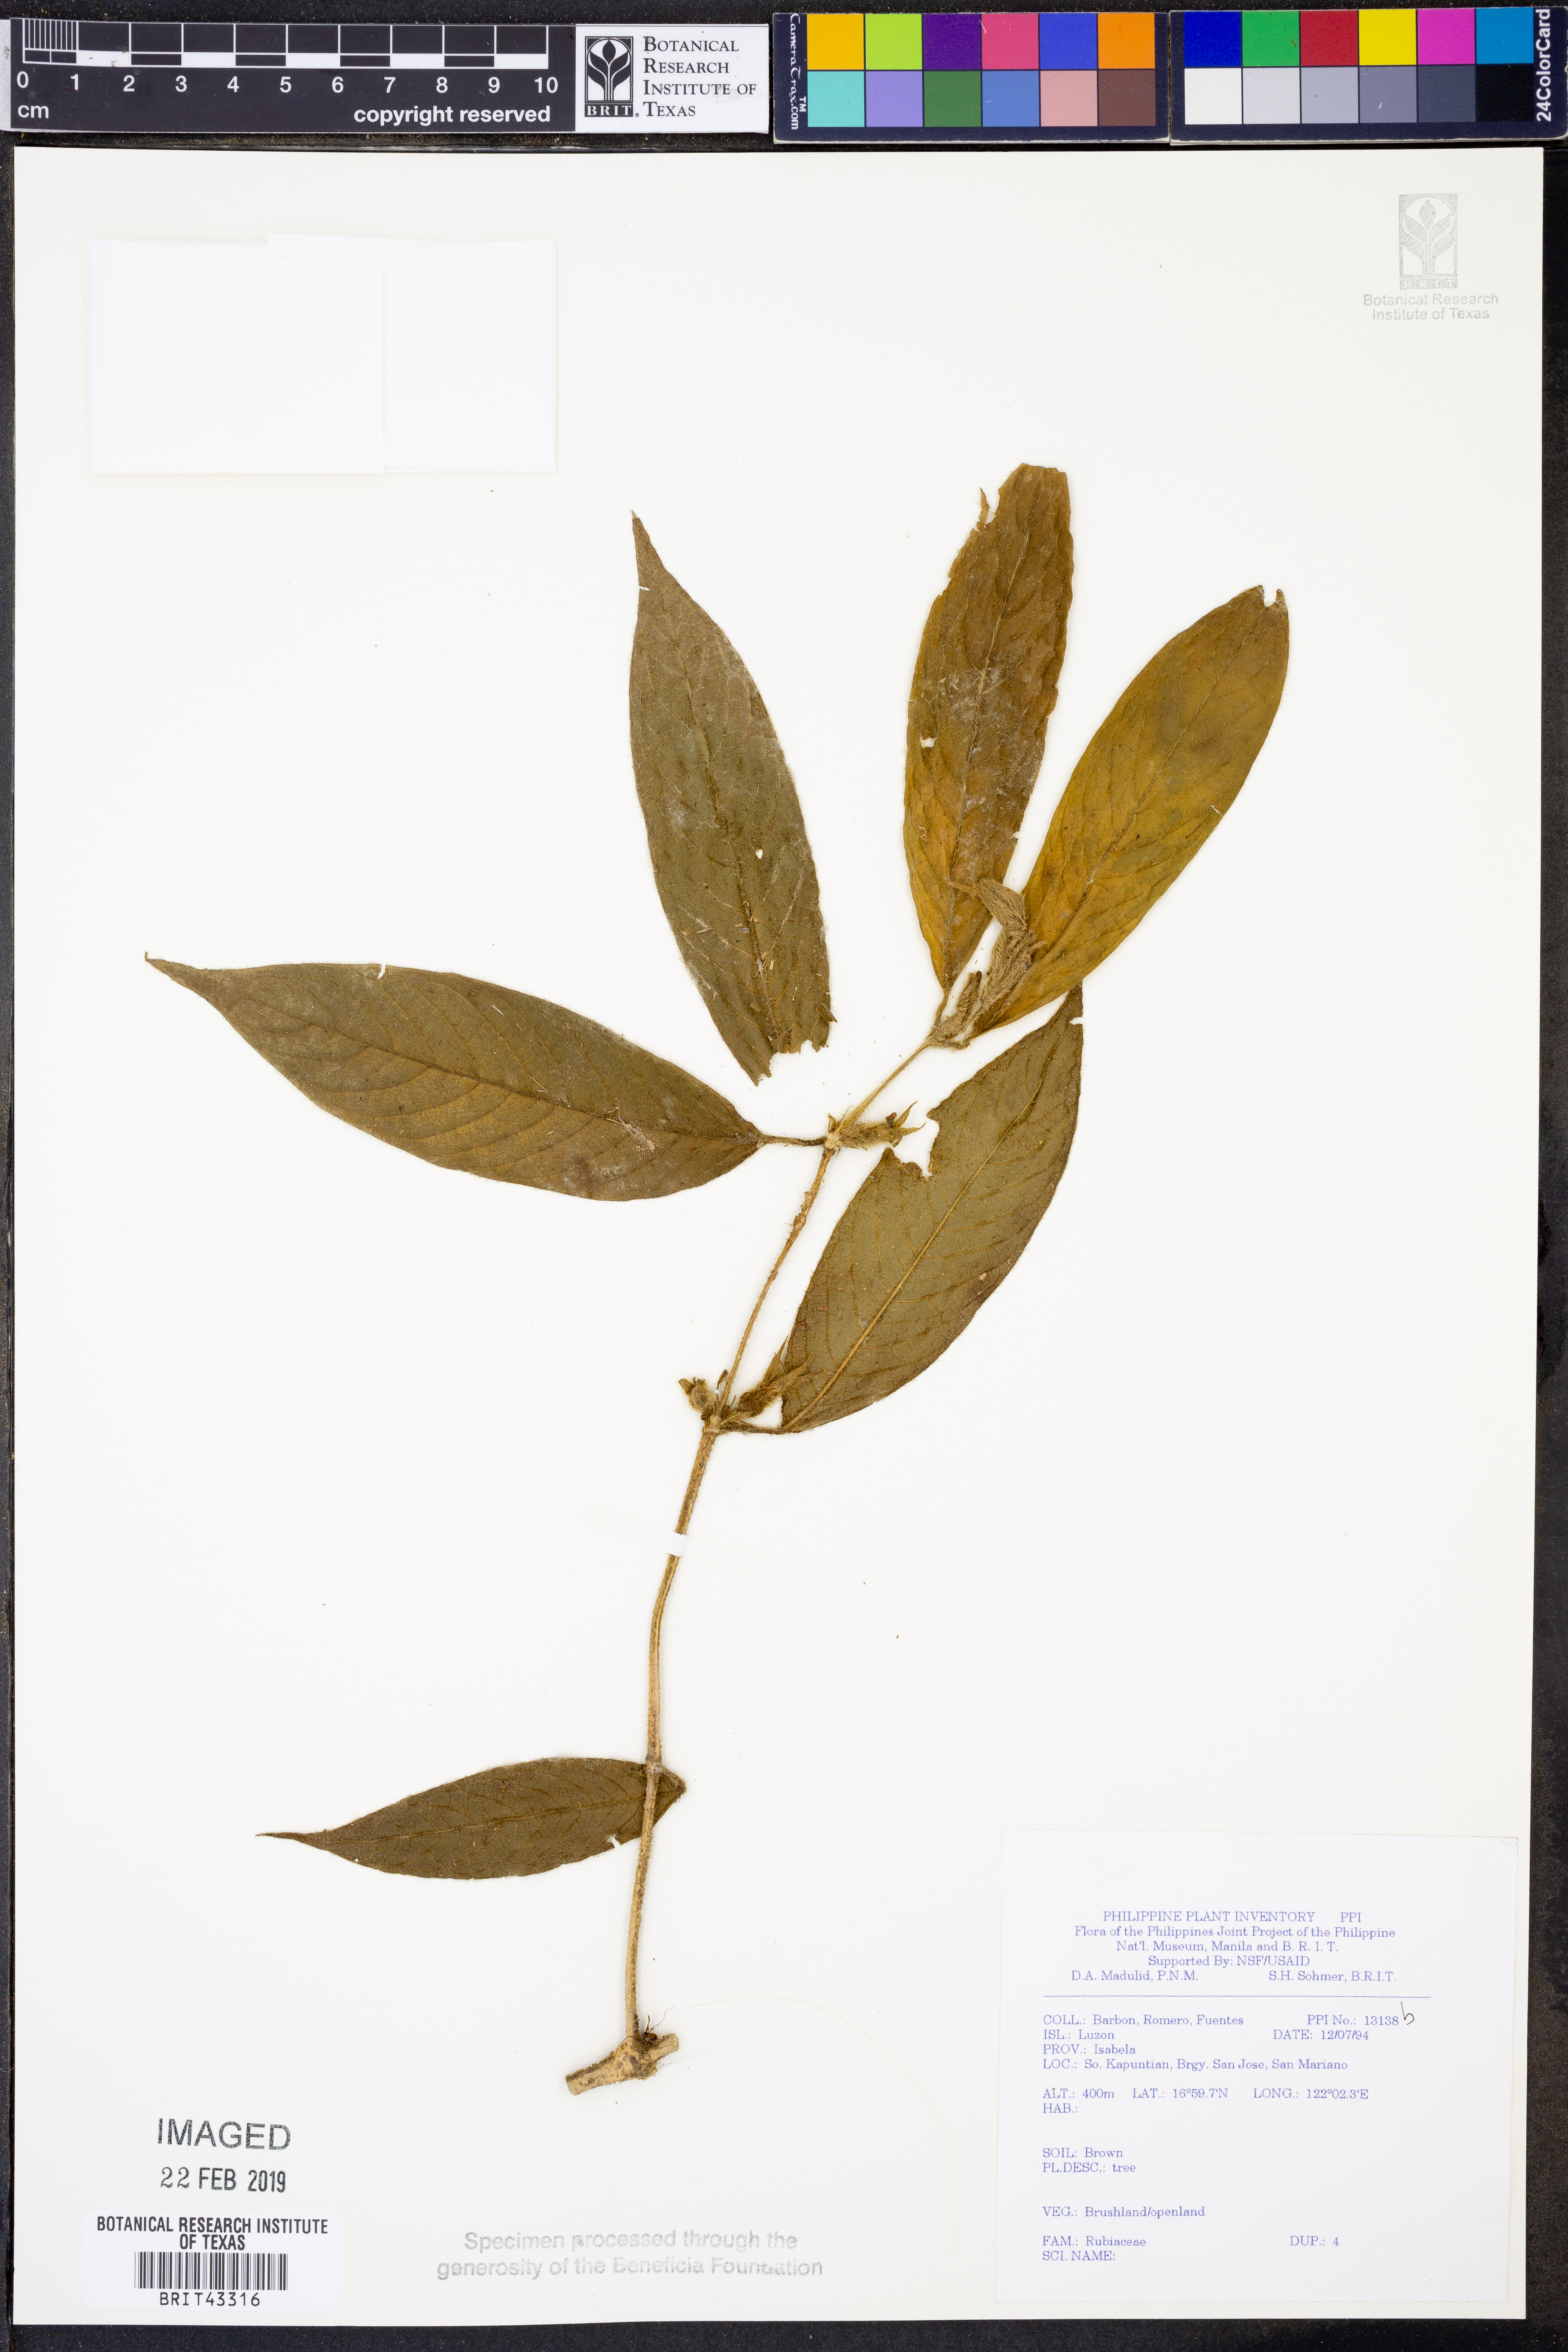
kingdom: Plantae
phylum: Tracheophyta
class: Magnoliopsida
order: Gentianales
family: Rubiaceae
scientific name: Rubiaceae
